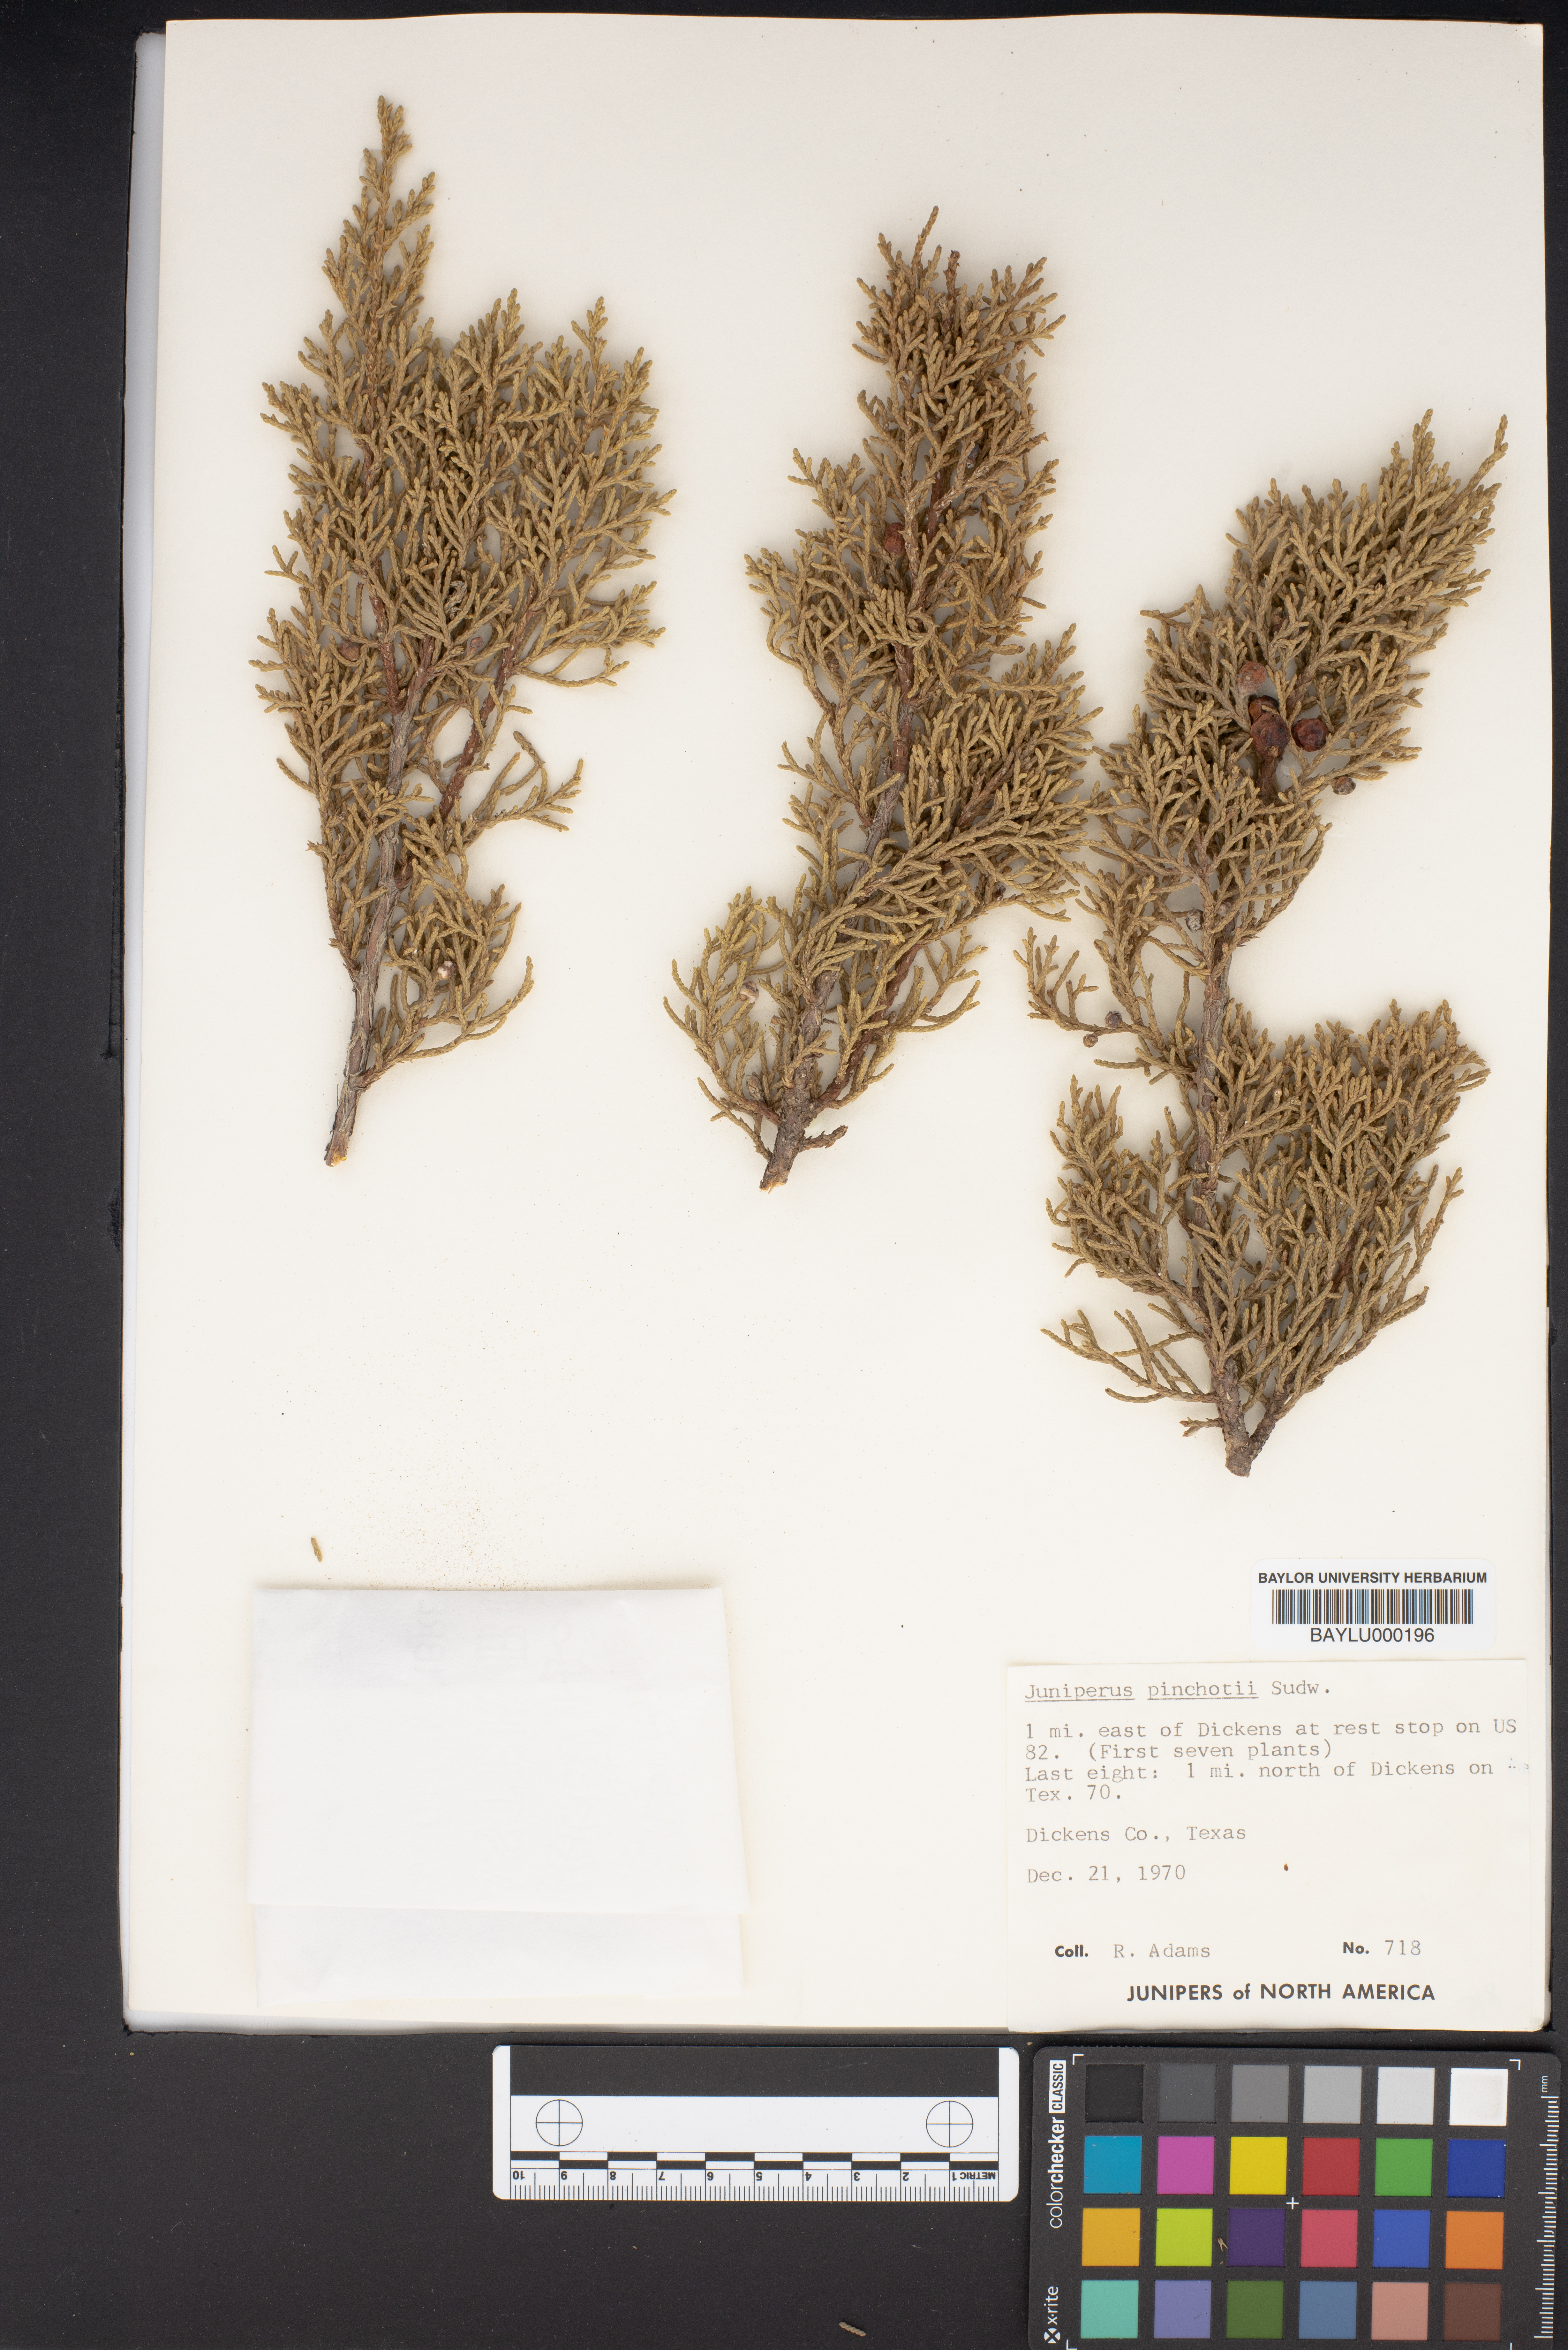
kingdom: Plantae
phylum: Tracheophyta
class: Pinopsida
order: Pinales
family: Cupressaceae
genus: Juniperus
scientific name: Juniperus pinchotii
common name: Pinchot juniper
